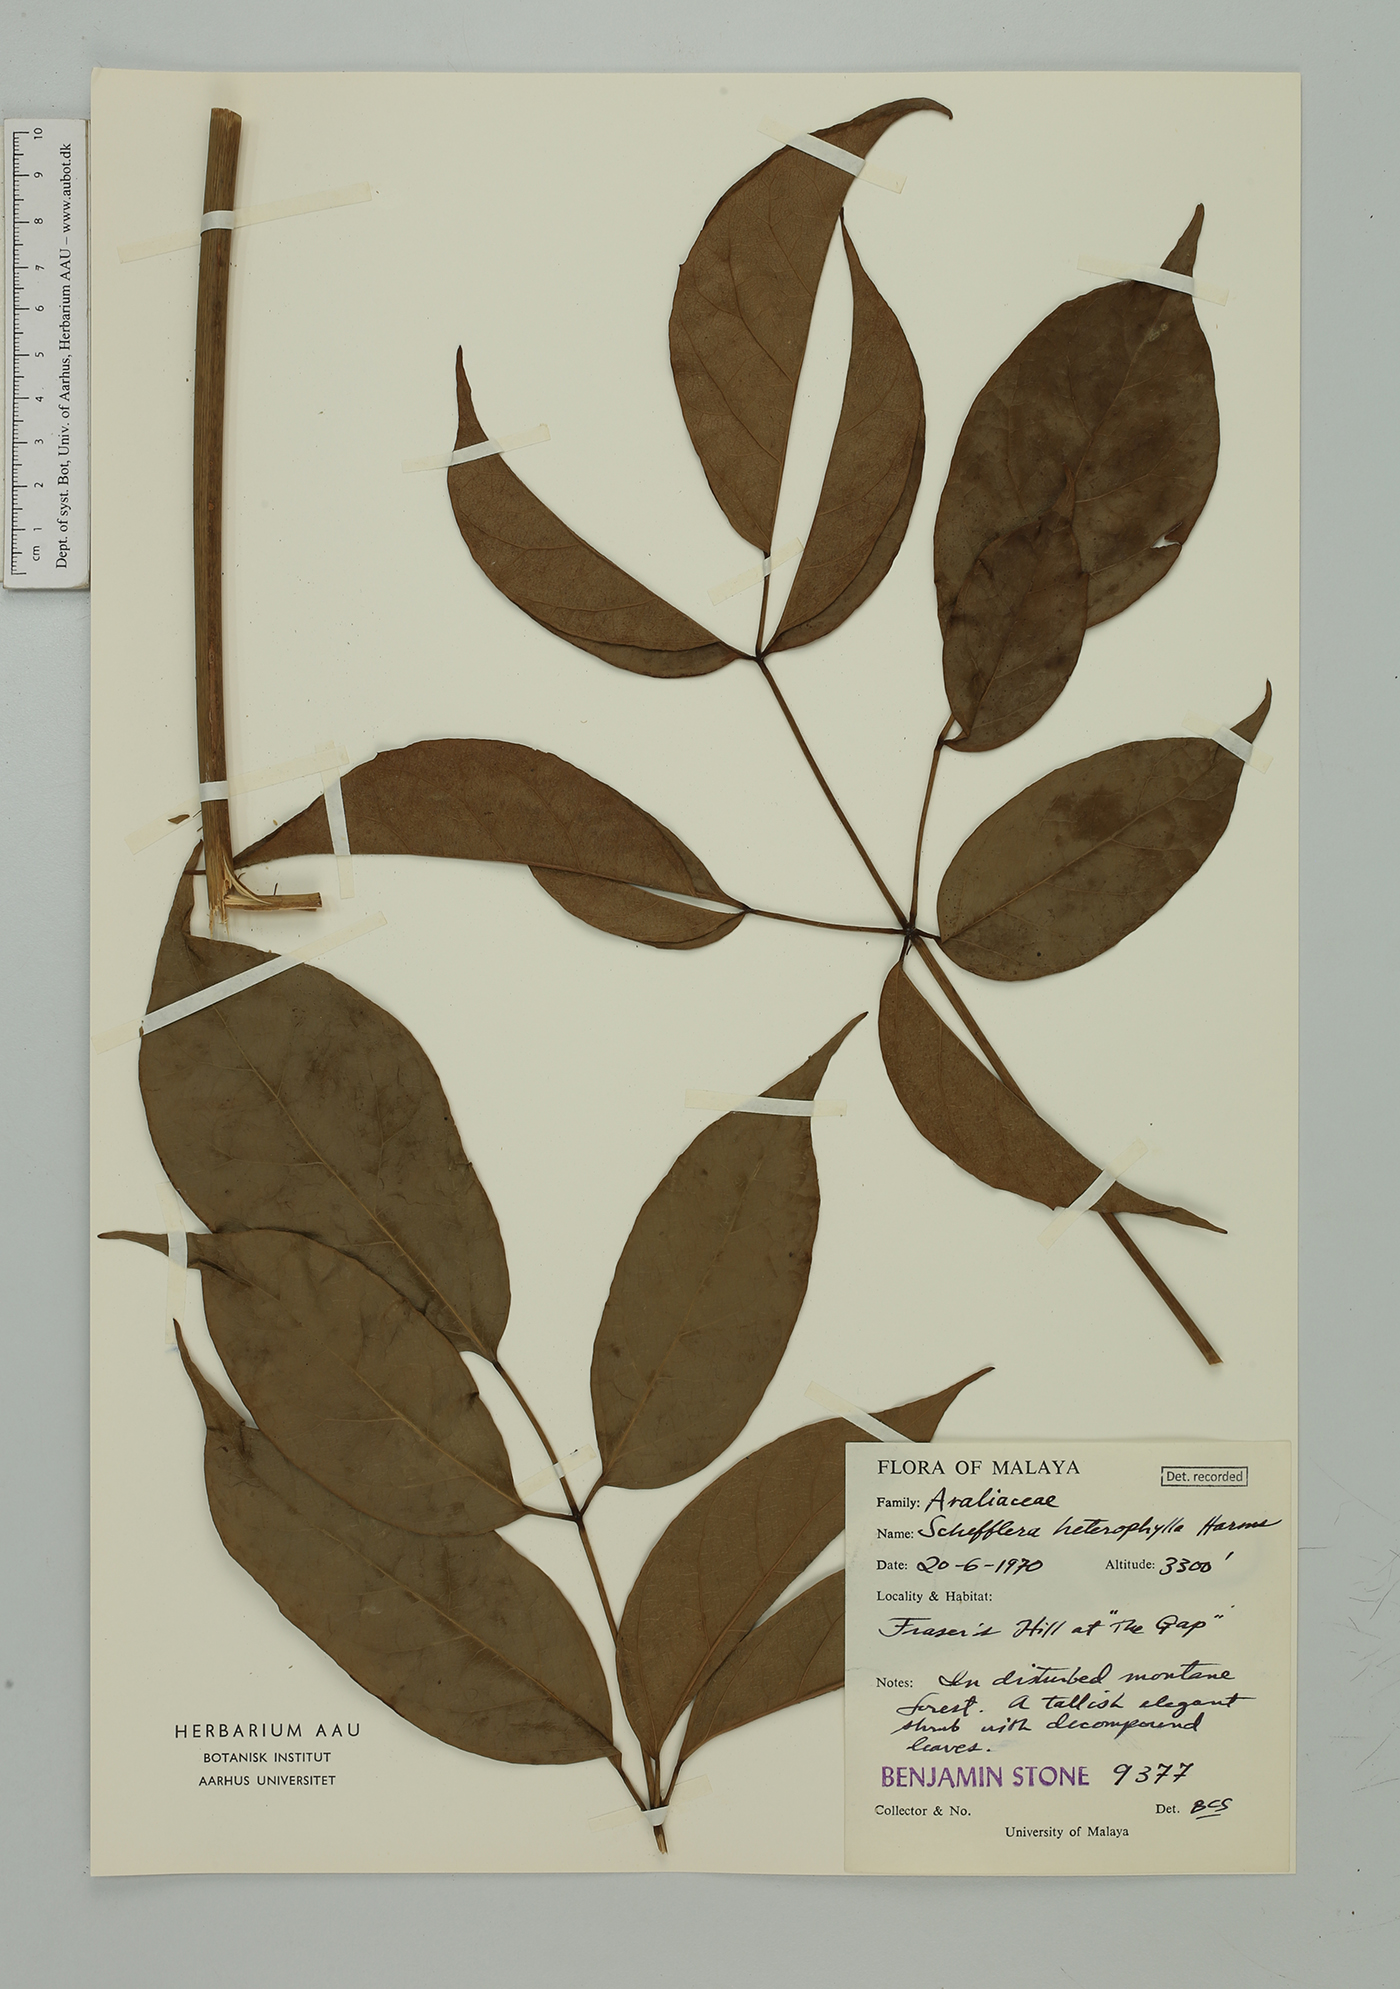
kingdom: Plantae
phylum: Tracheophyta
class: Magnoliopsida
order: Apiales
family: Araliaceae
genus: Heptapleurum
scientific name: Heptapleurum heterophyllum
